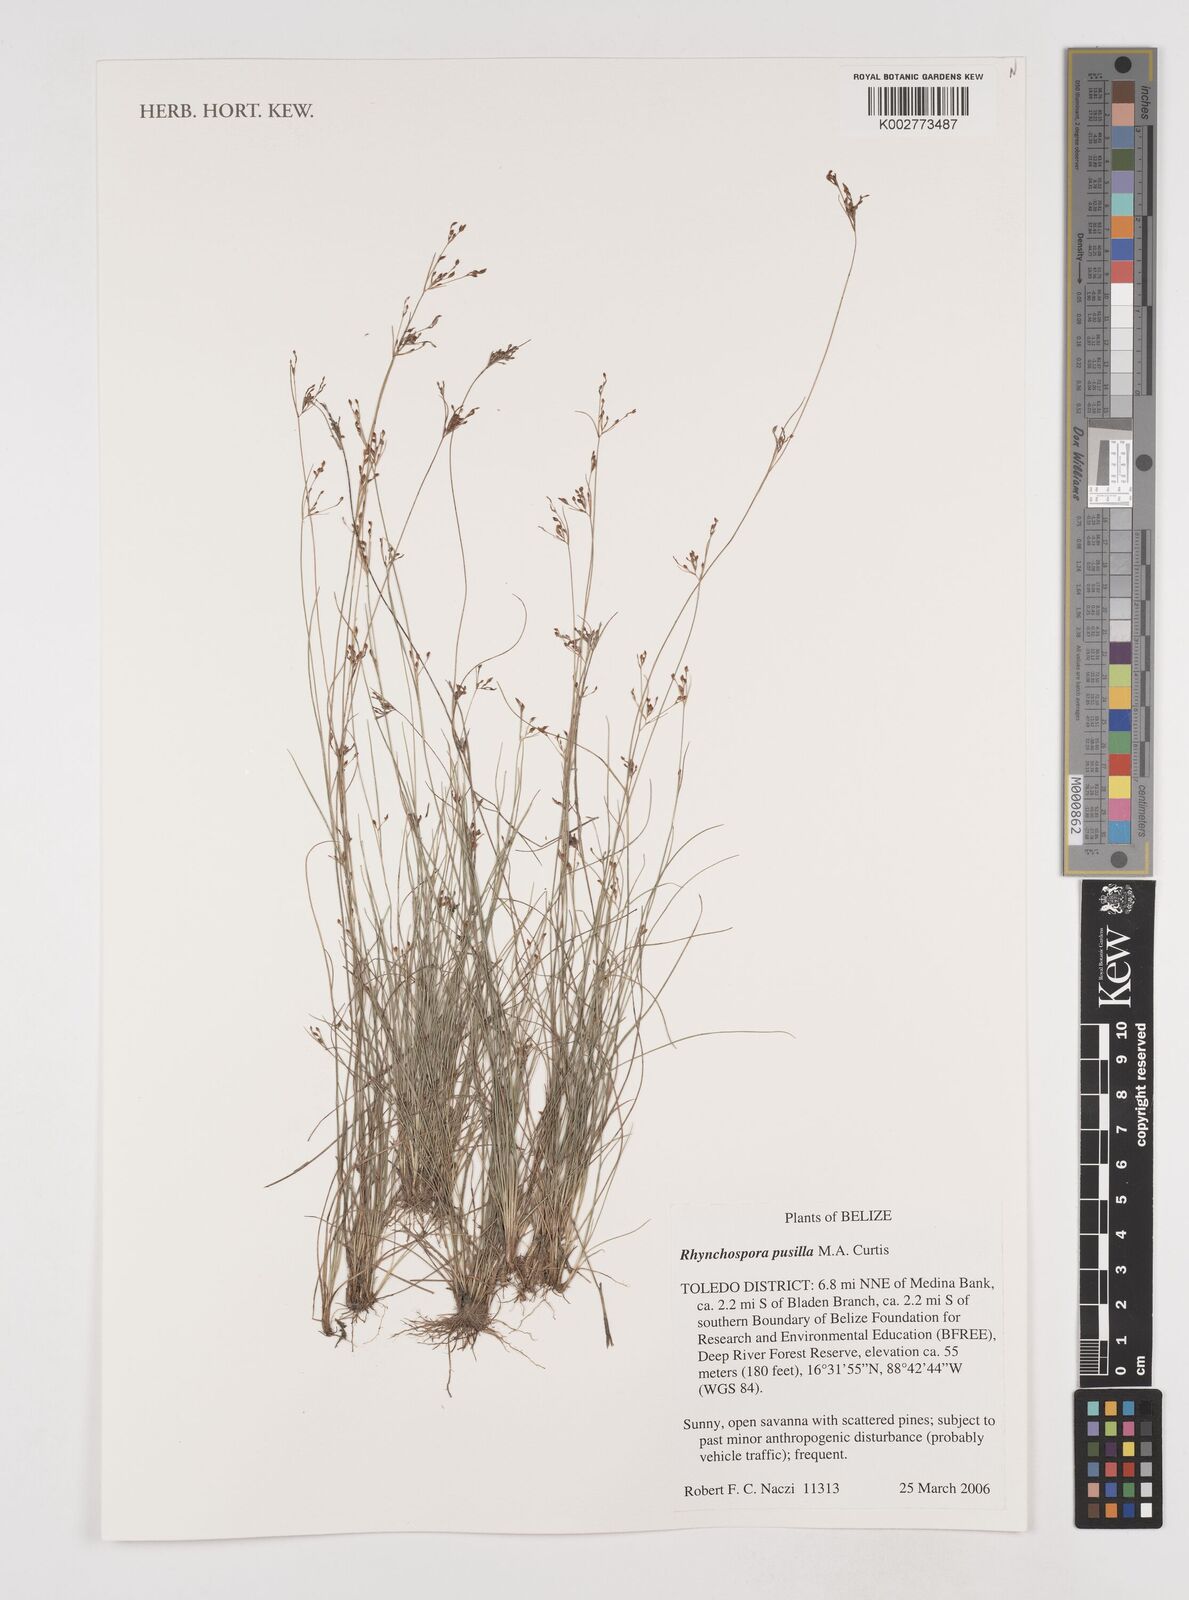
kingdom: Plantae
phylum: Tracheophyta
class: Liliopsida
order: Poales
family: Cyperaceae
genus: Rhynchospora
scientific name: Rhynchospora intermixta
